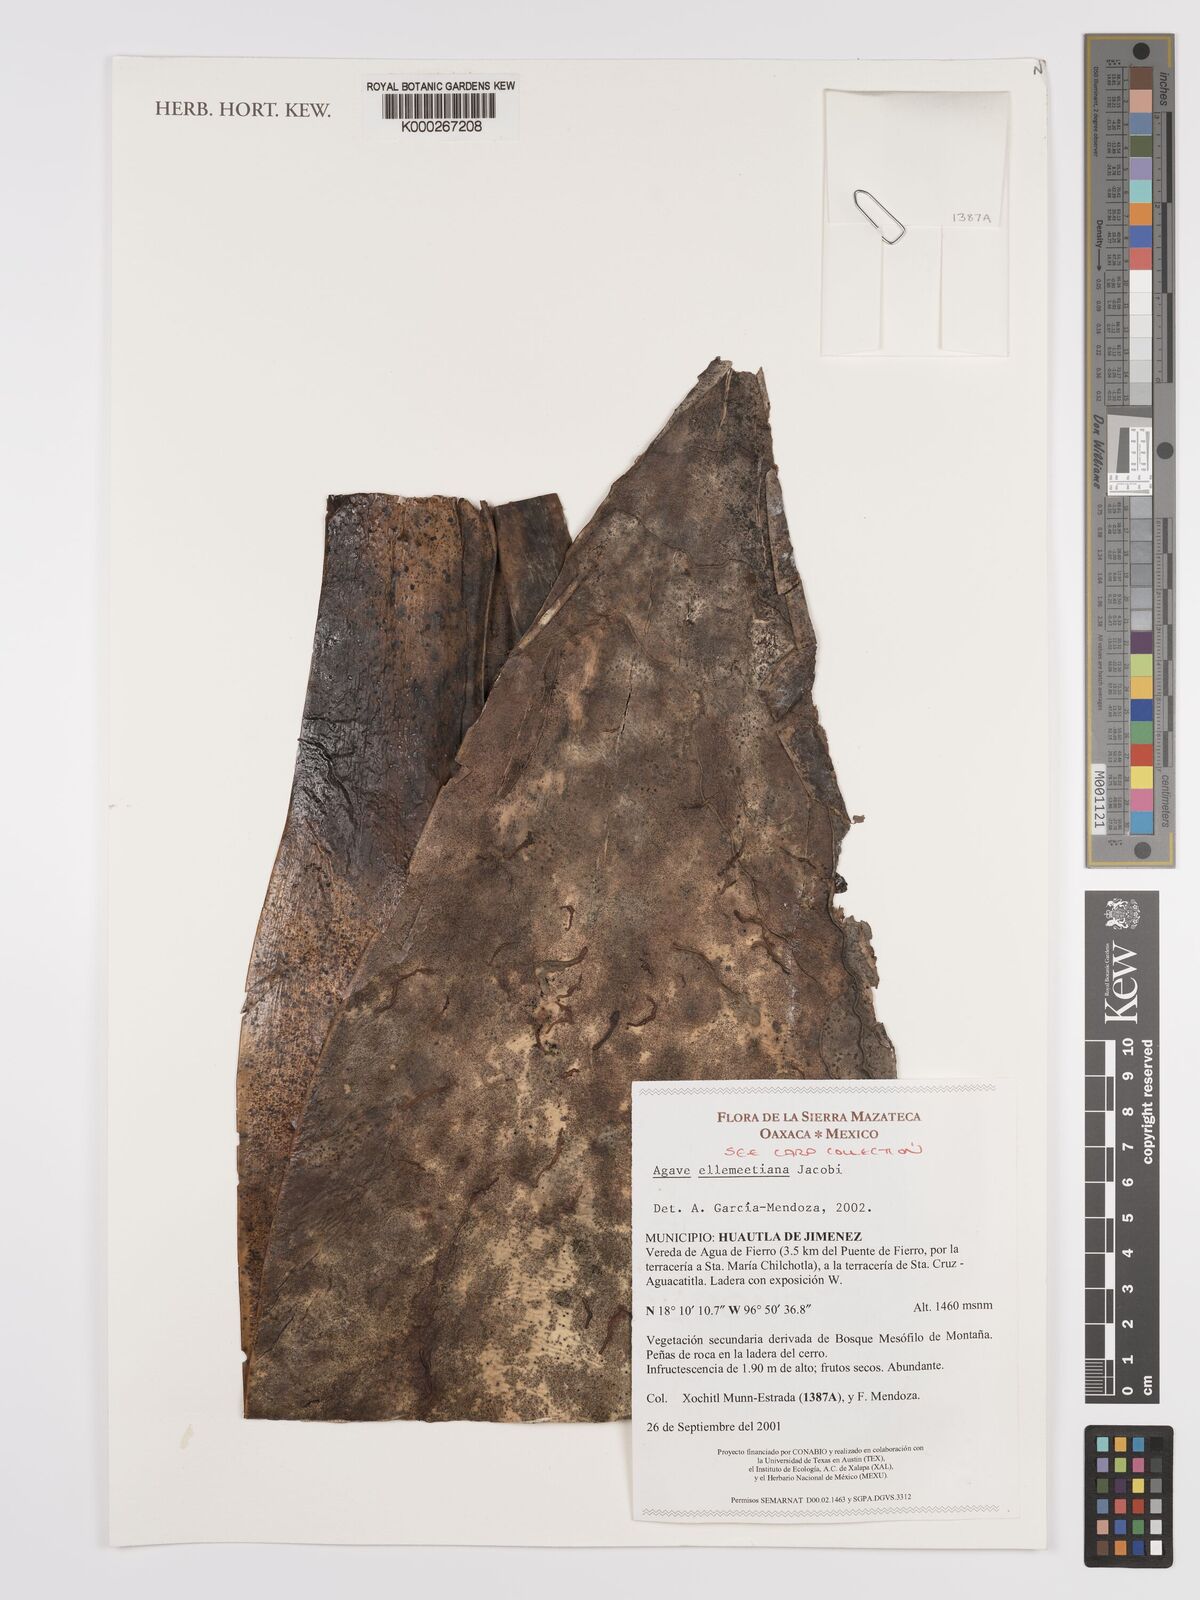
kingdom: Plantae
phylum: Tracheophyta
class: Liliopsida
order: Asparagales
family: Asparagaceae
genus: Agave
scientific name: Agave
